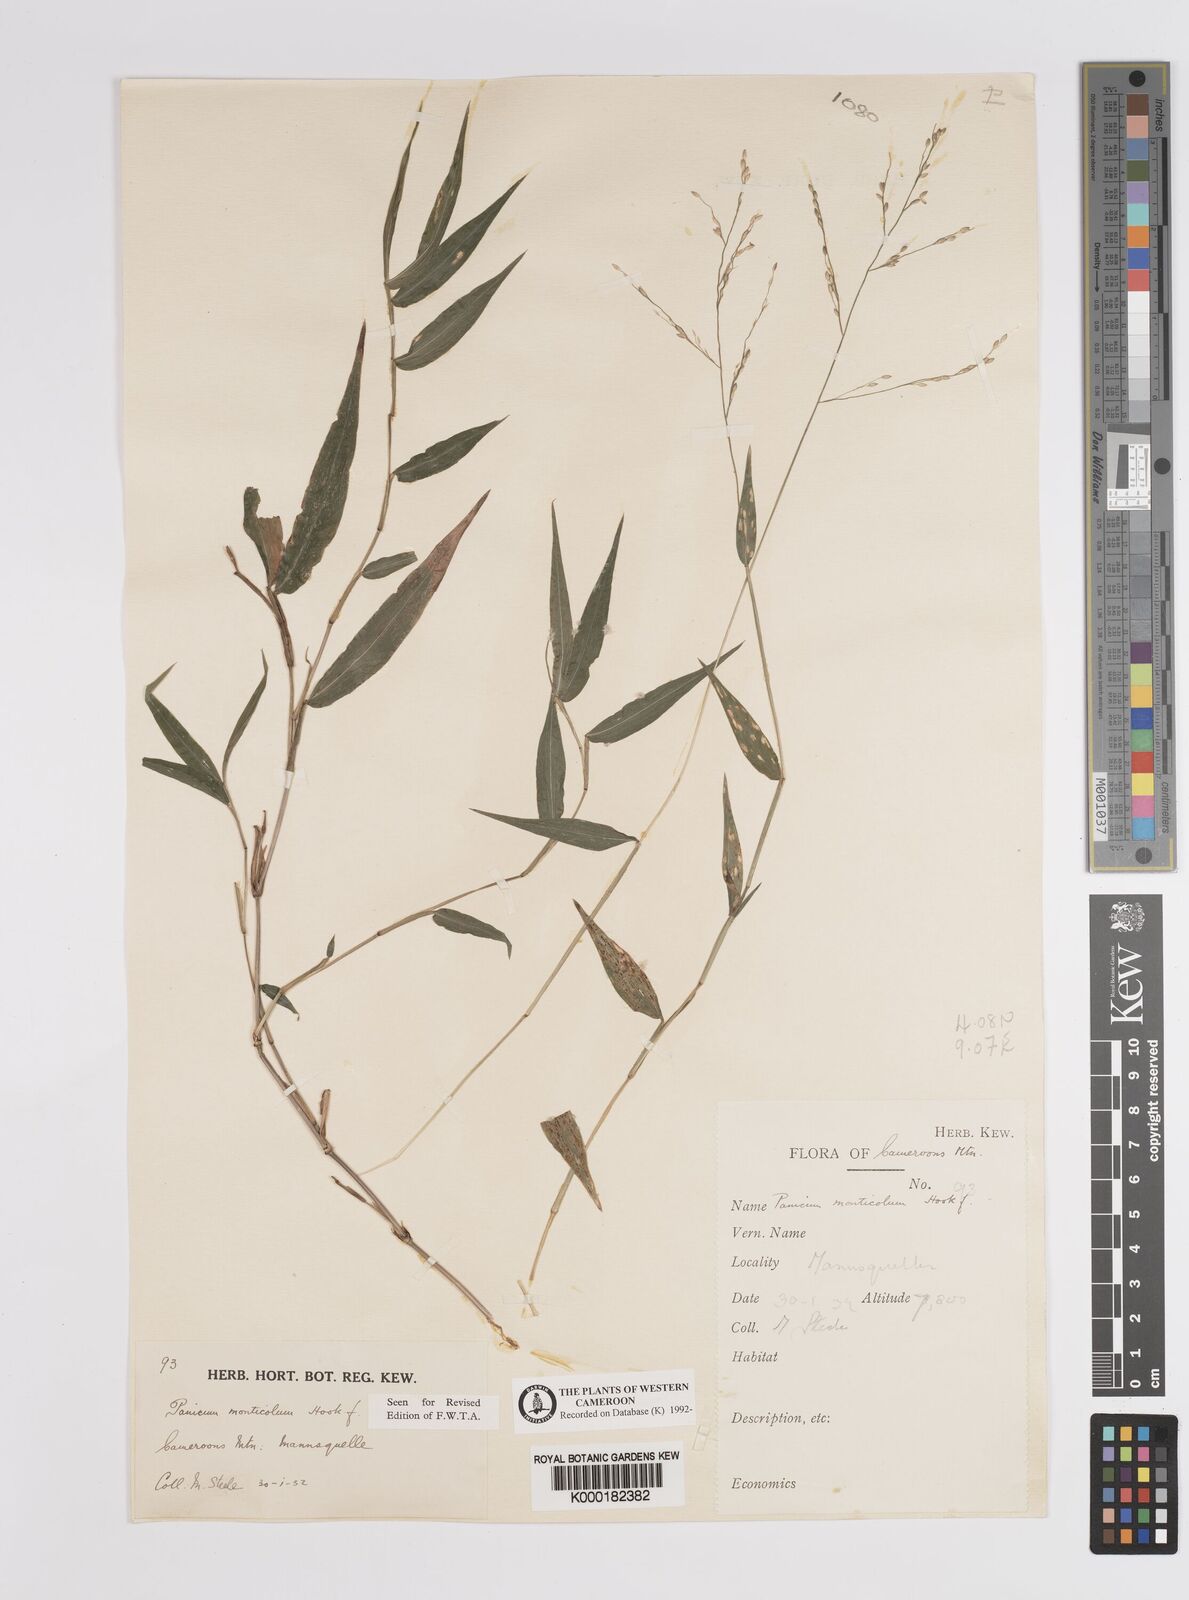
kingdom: Plantae
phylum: Tracheophyta
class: Liliopsida
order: Poales
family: Poaceae
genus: Panicum
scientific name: Panicum monticola
